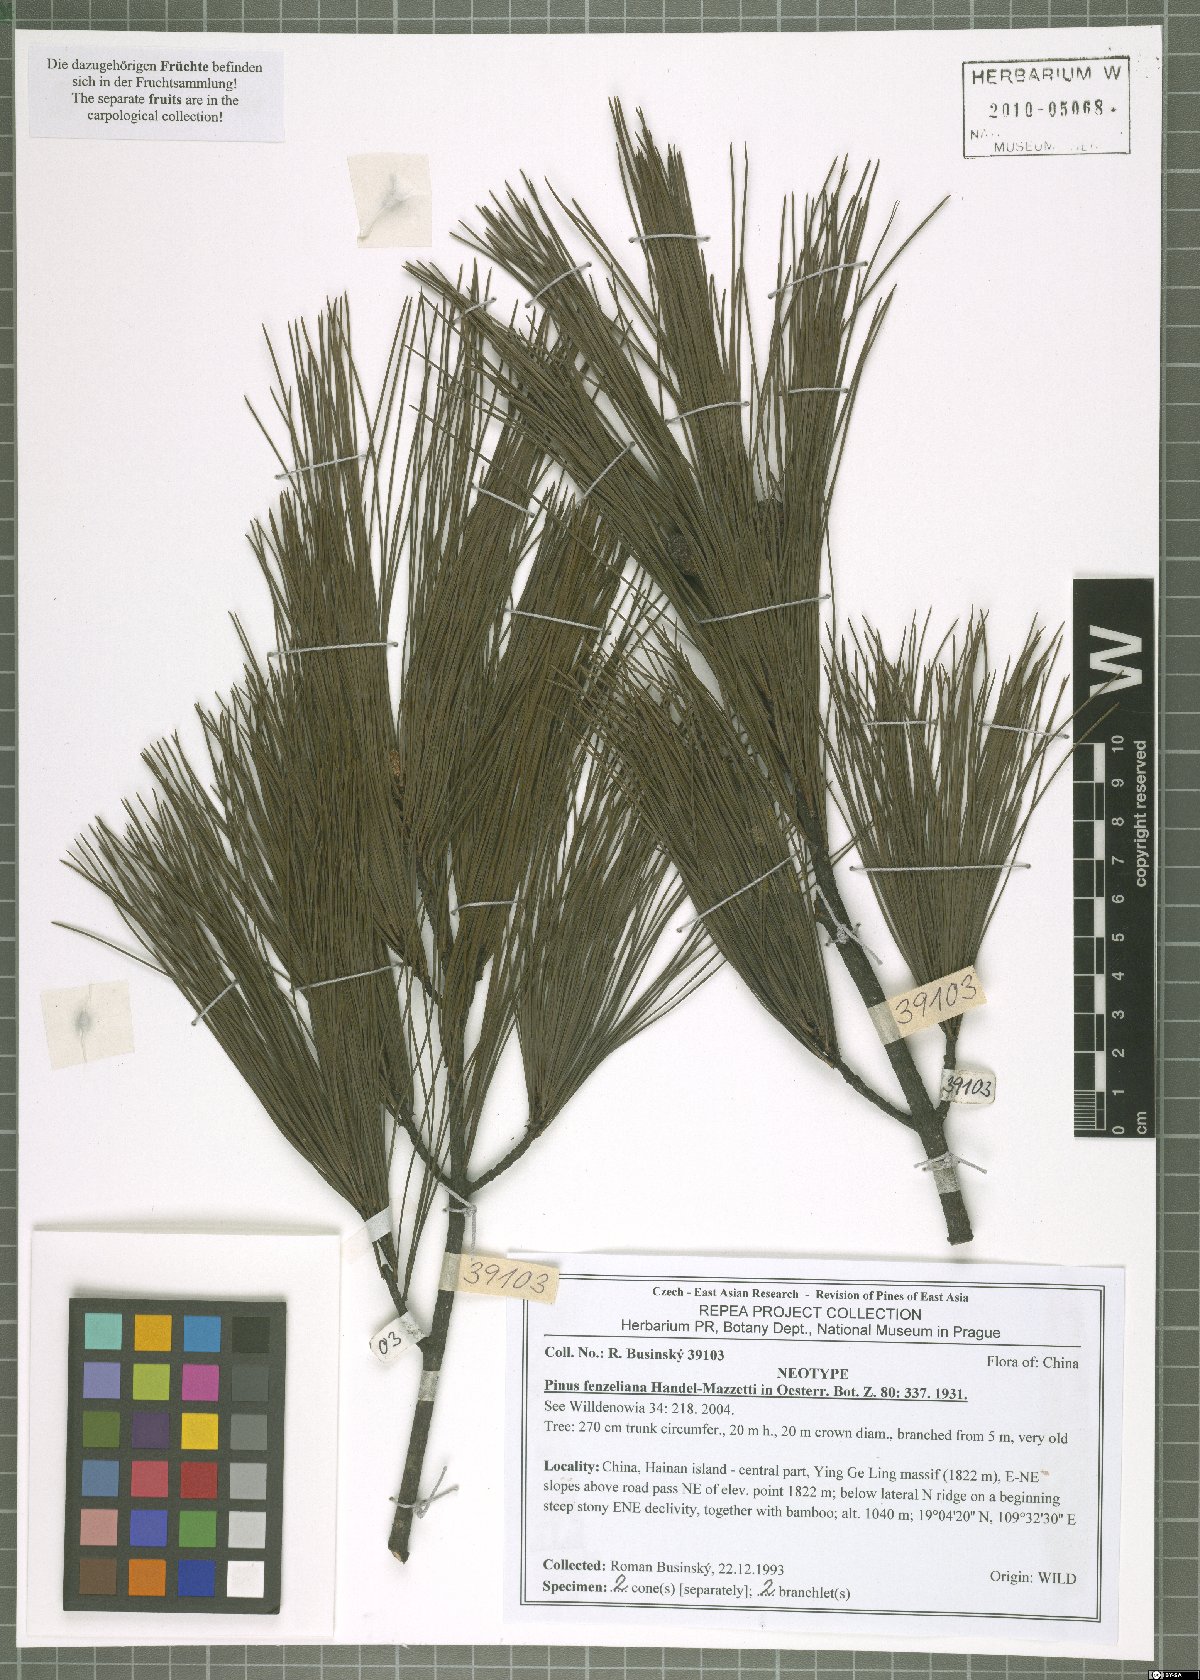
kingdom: Plantae
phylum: Tracheophyta
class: Pinopsida
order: Pinales
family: Pinaceae
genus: Pinus
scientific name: Pinus fenzeliana
